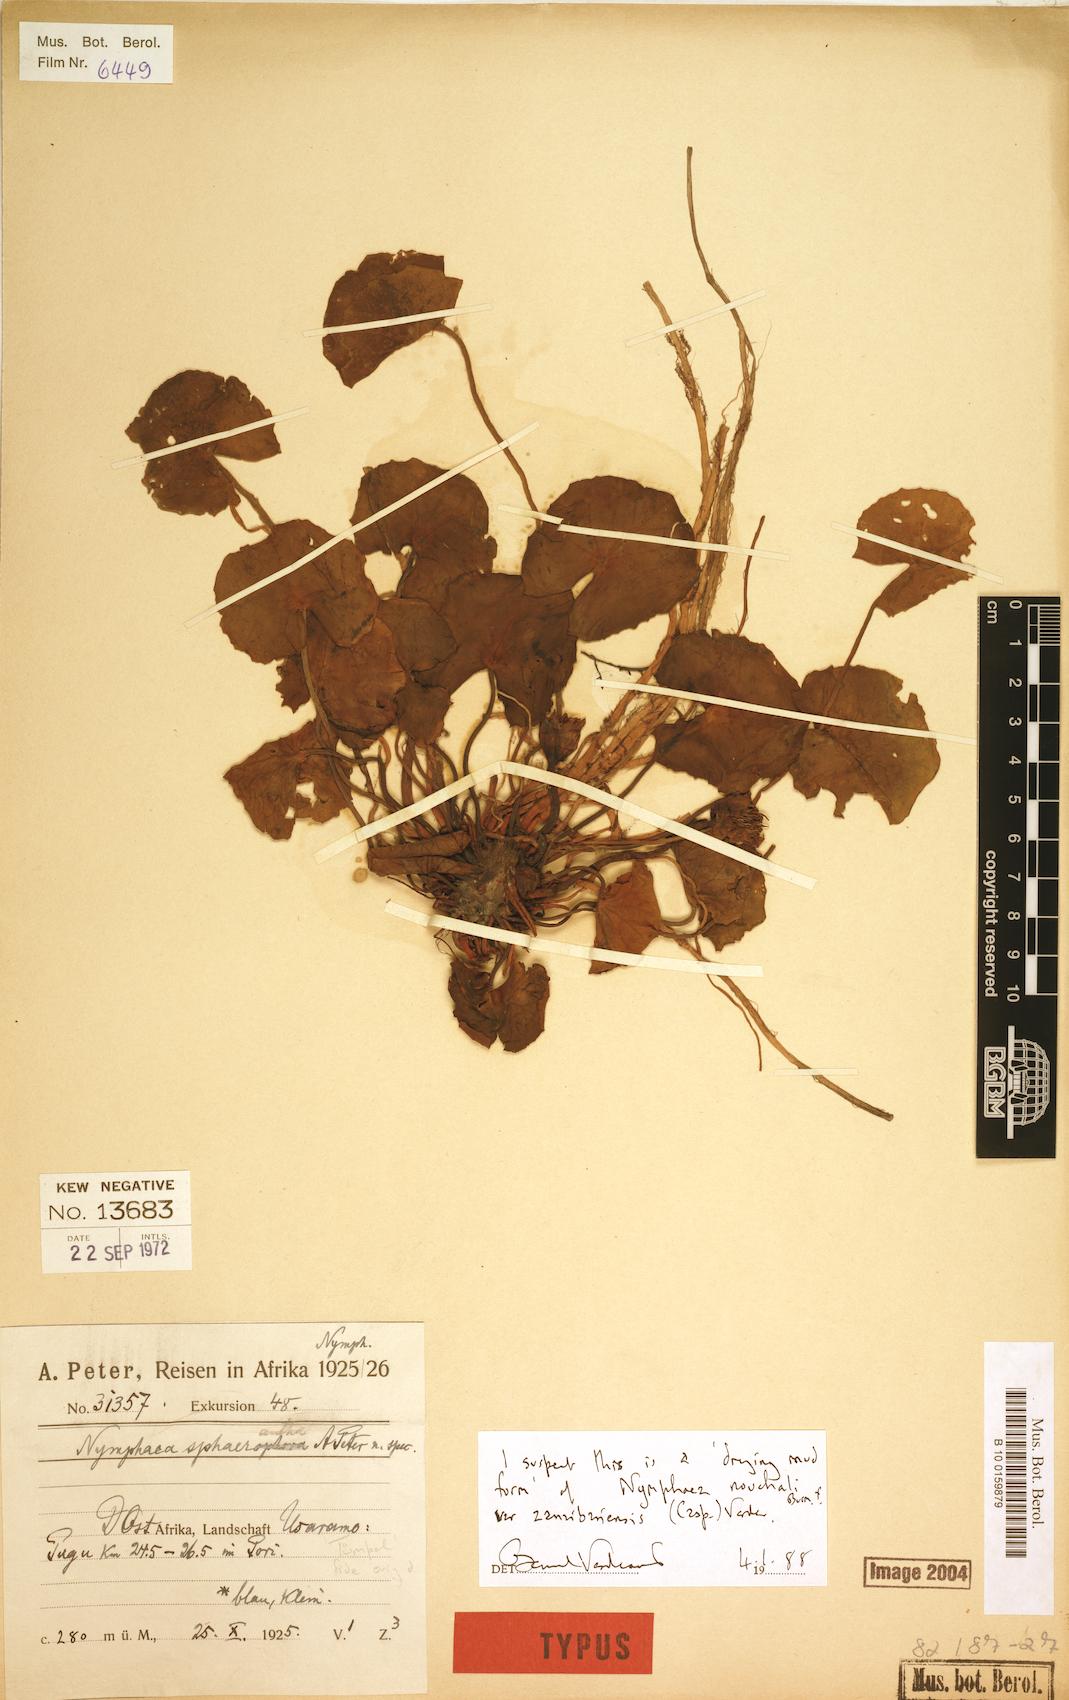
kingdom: Plantae
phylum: Tracheophyta
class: Magnoliopsida
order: Nymphaeales
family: Nymphaeaceae
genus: Nymphaea
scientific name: Nymphaea nouchali
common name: Blue lotus
